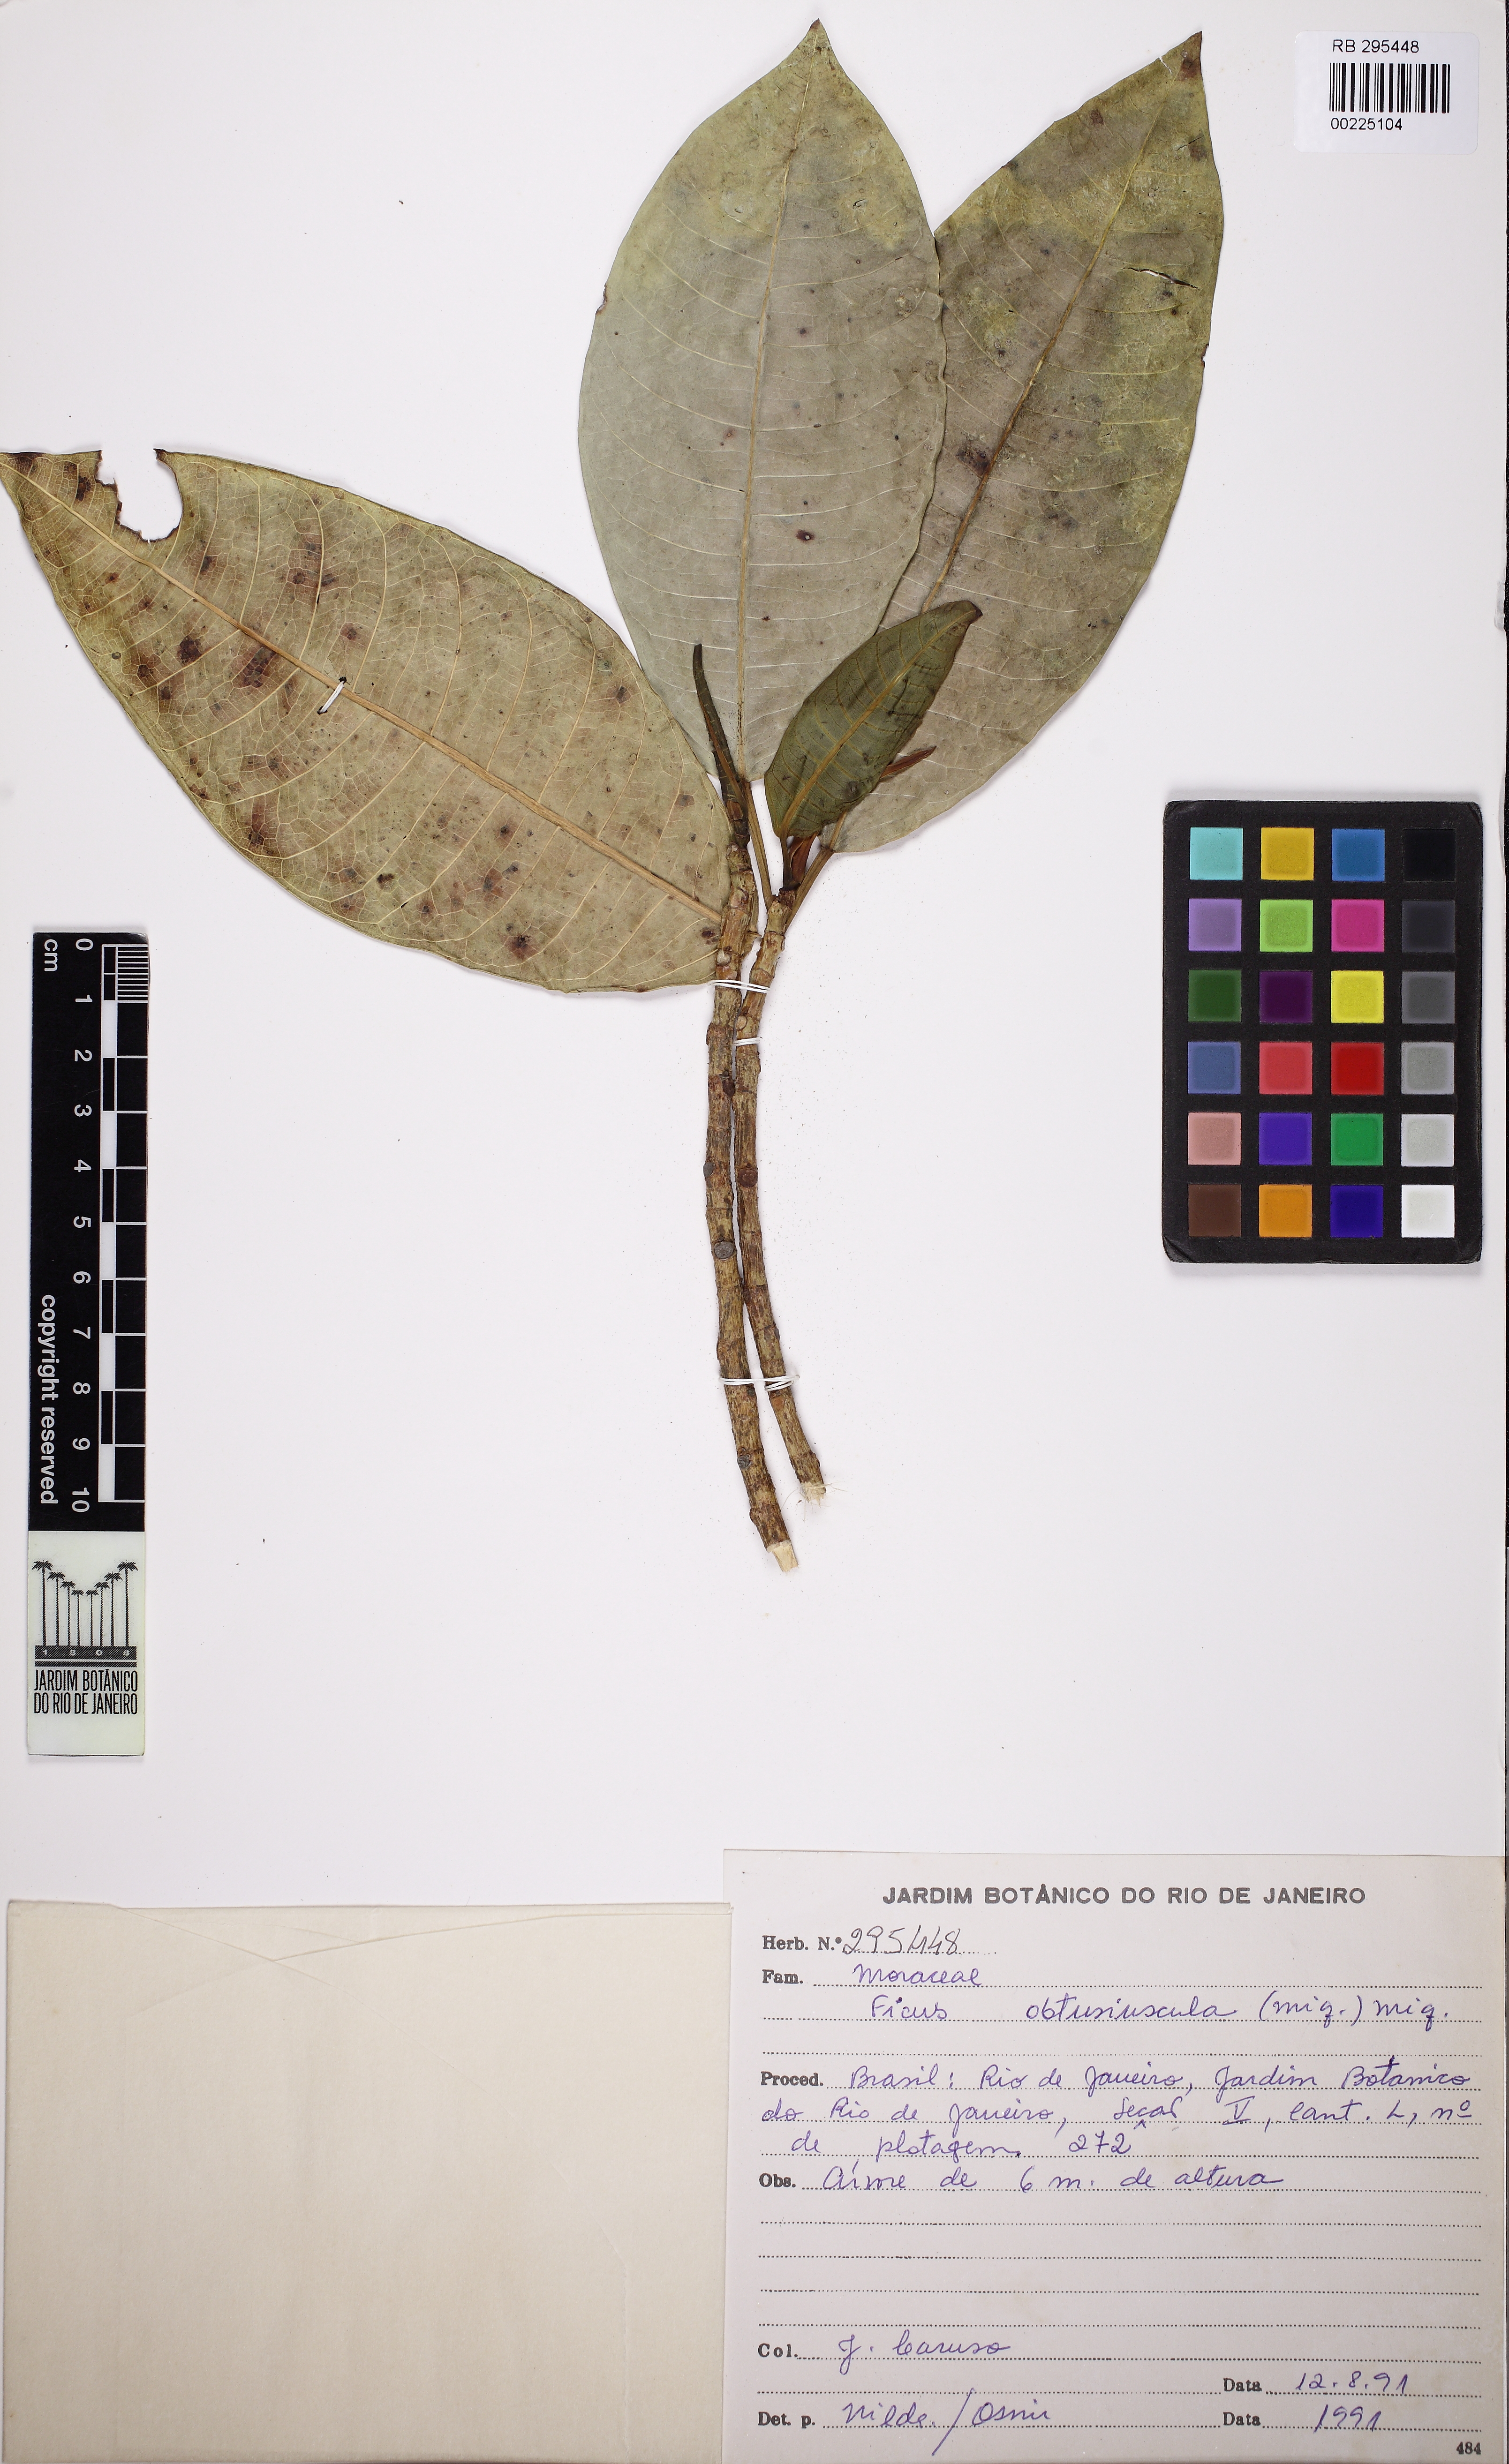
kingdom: Plantae
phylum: Tracheophyta
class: Magnoliopsida
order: Rosales
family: Moraceae
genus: Ficus
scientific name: Ficus obtusiuscula
